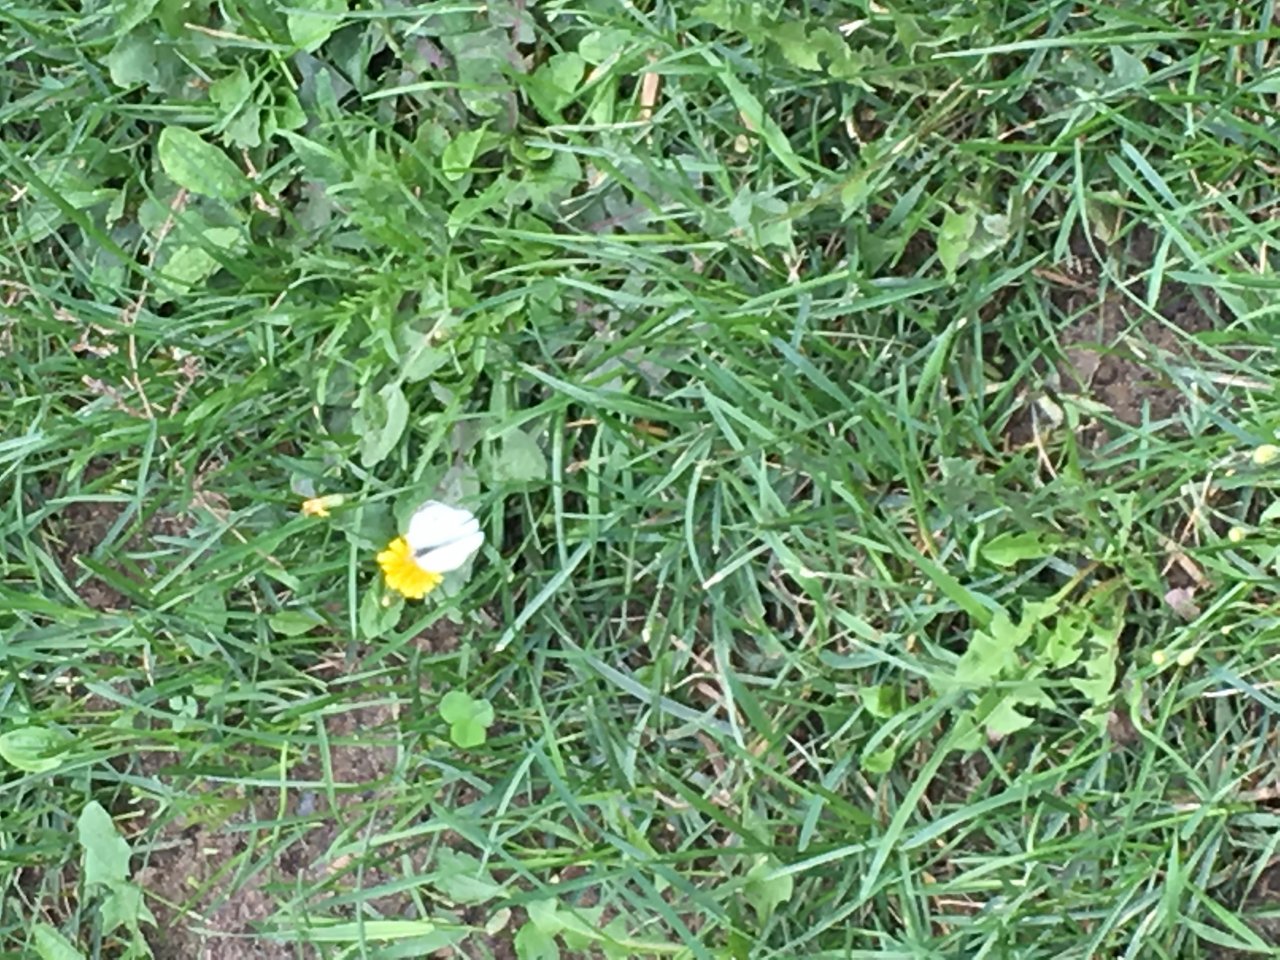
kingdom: Animalia
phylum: Arthropoda
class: Insecta
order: Lepidoptera
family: Pieridae
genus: Pieris
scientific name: Pieris rapae
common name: Cabbage White
